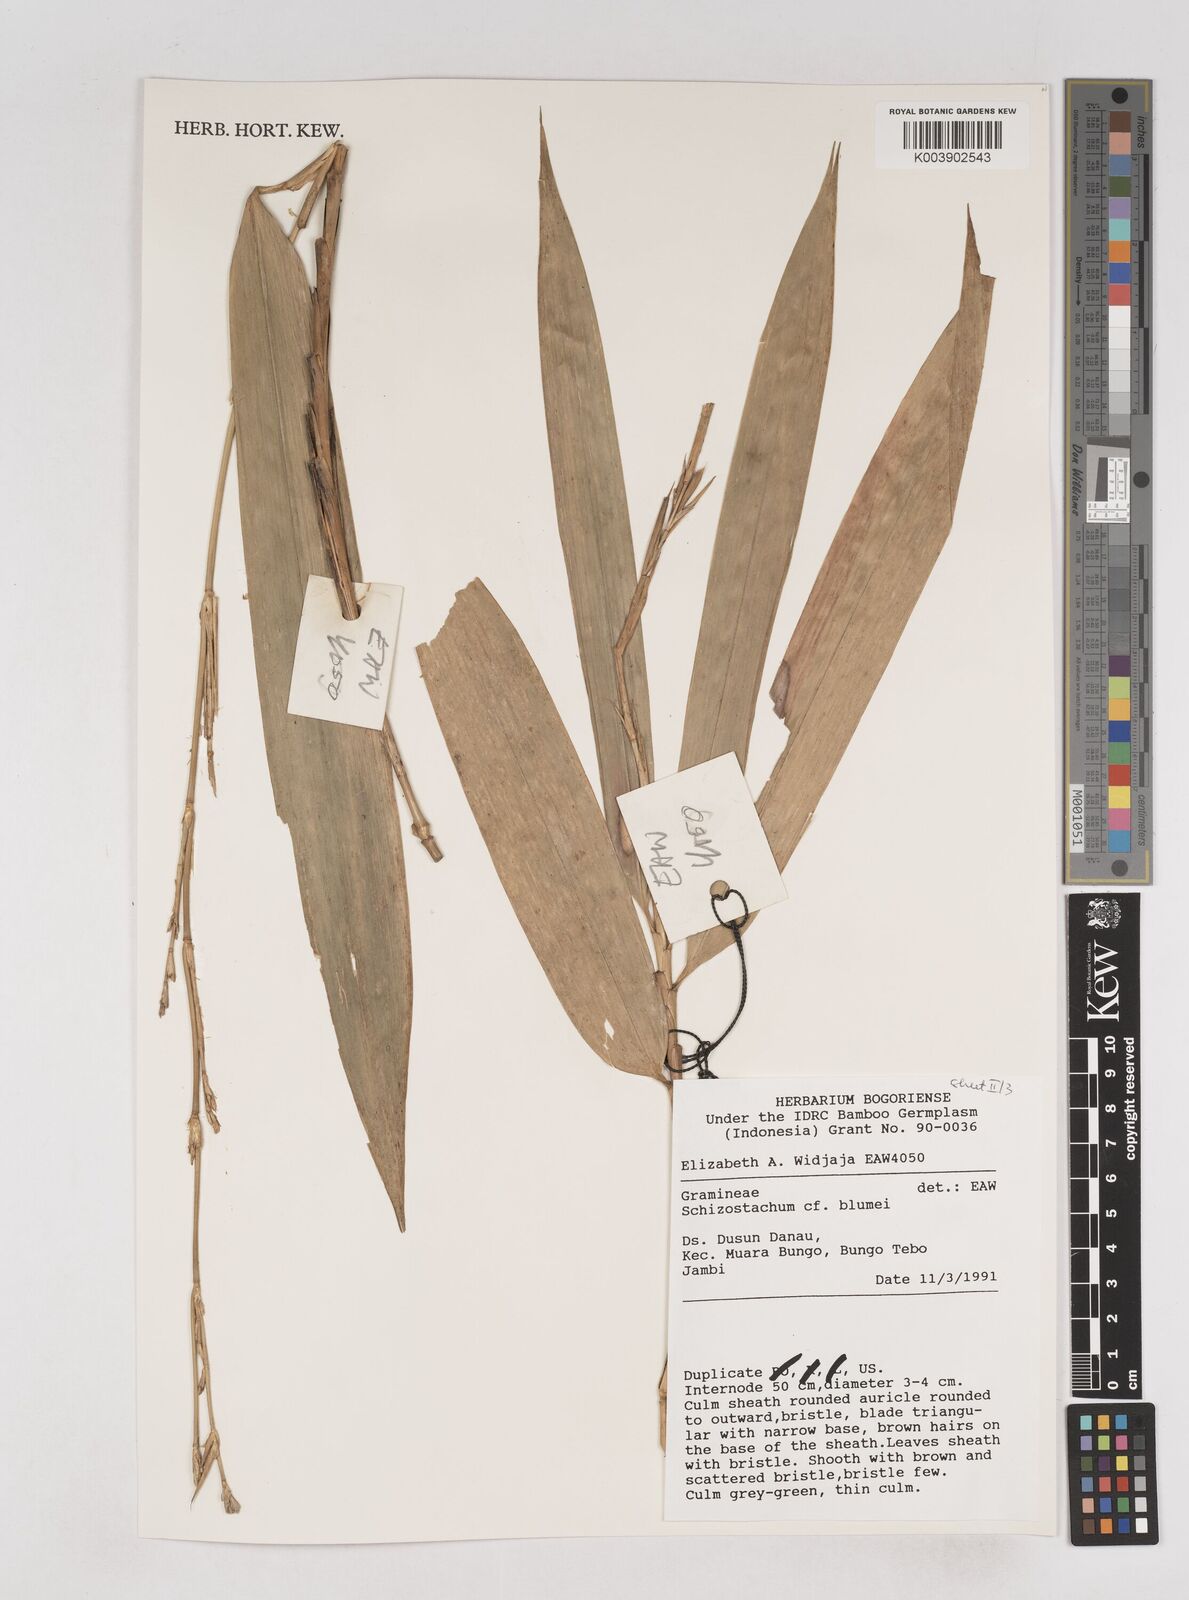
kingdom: Plantae
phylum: Tracheophyta
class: Liliopsida
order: Poales
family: Poaceae
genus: Schizostachyum
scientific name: Schizostachyum blumei
